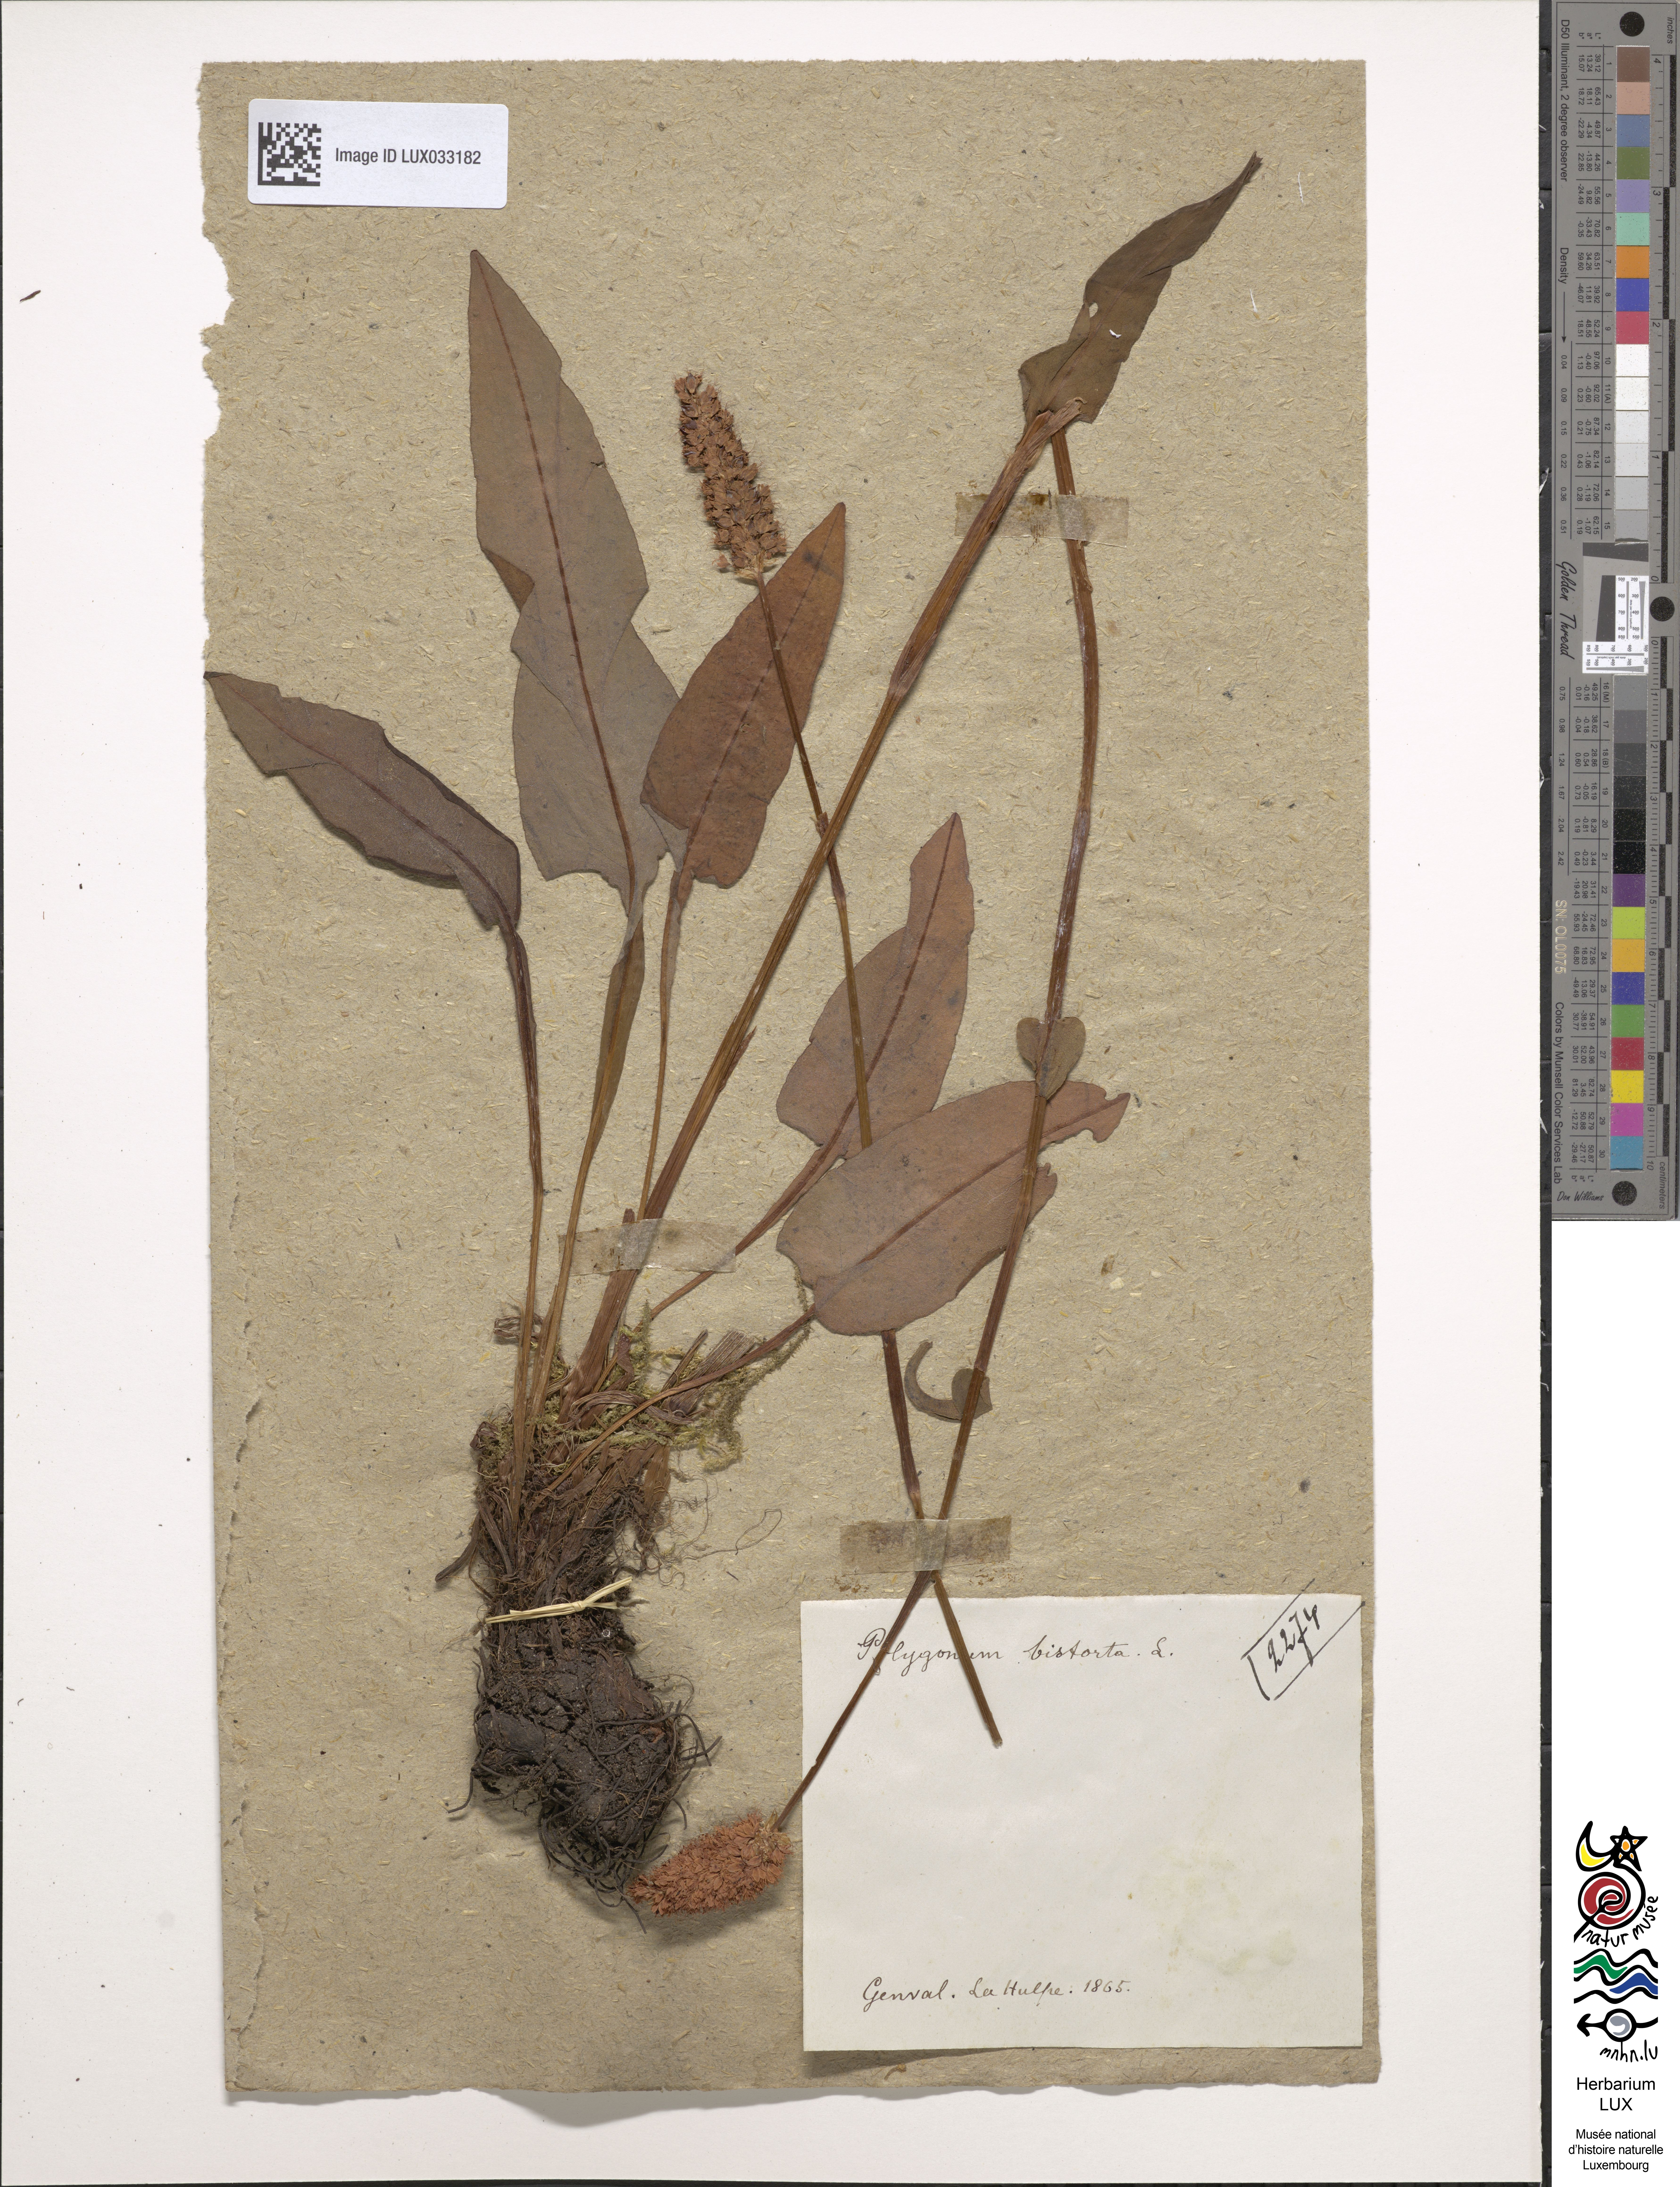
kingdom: Plantae
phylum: Tracheophyta
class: Magnoliopsida
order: Caryophyllales
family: Polygonaceae
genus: Bistorta
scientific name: Bistorta officinalis
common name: Common bistort
